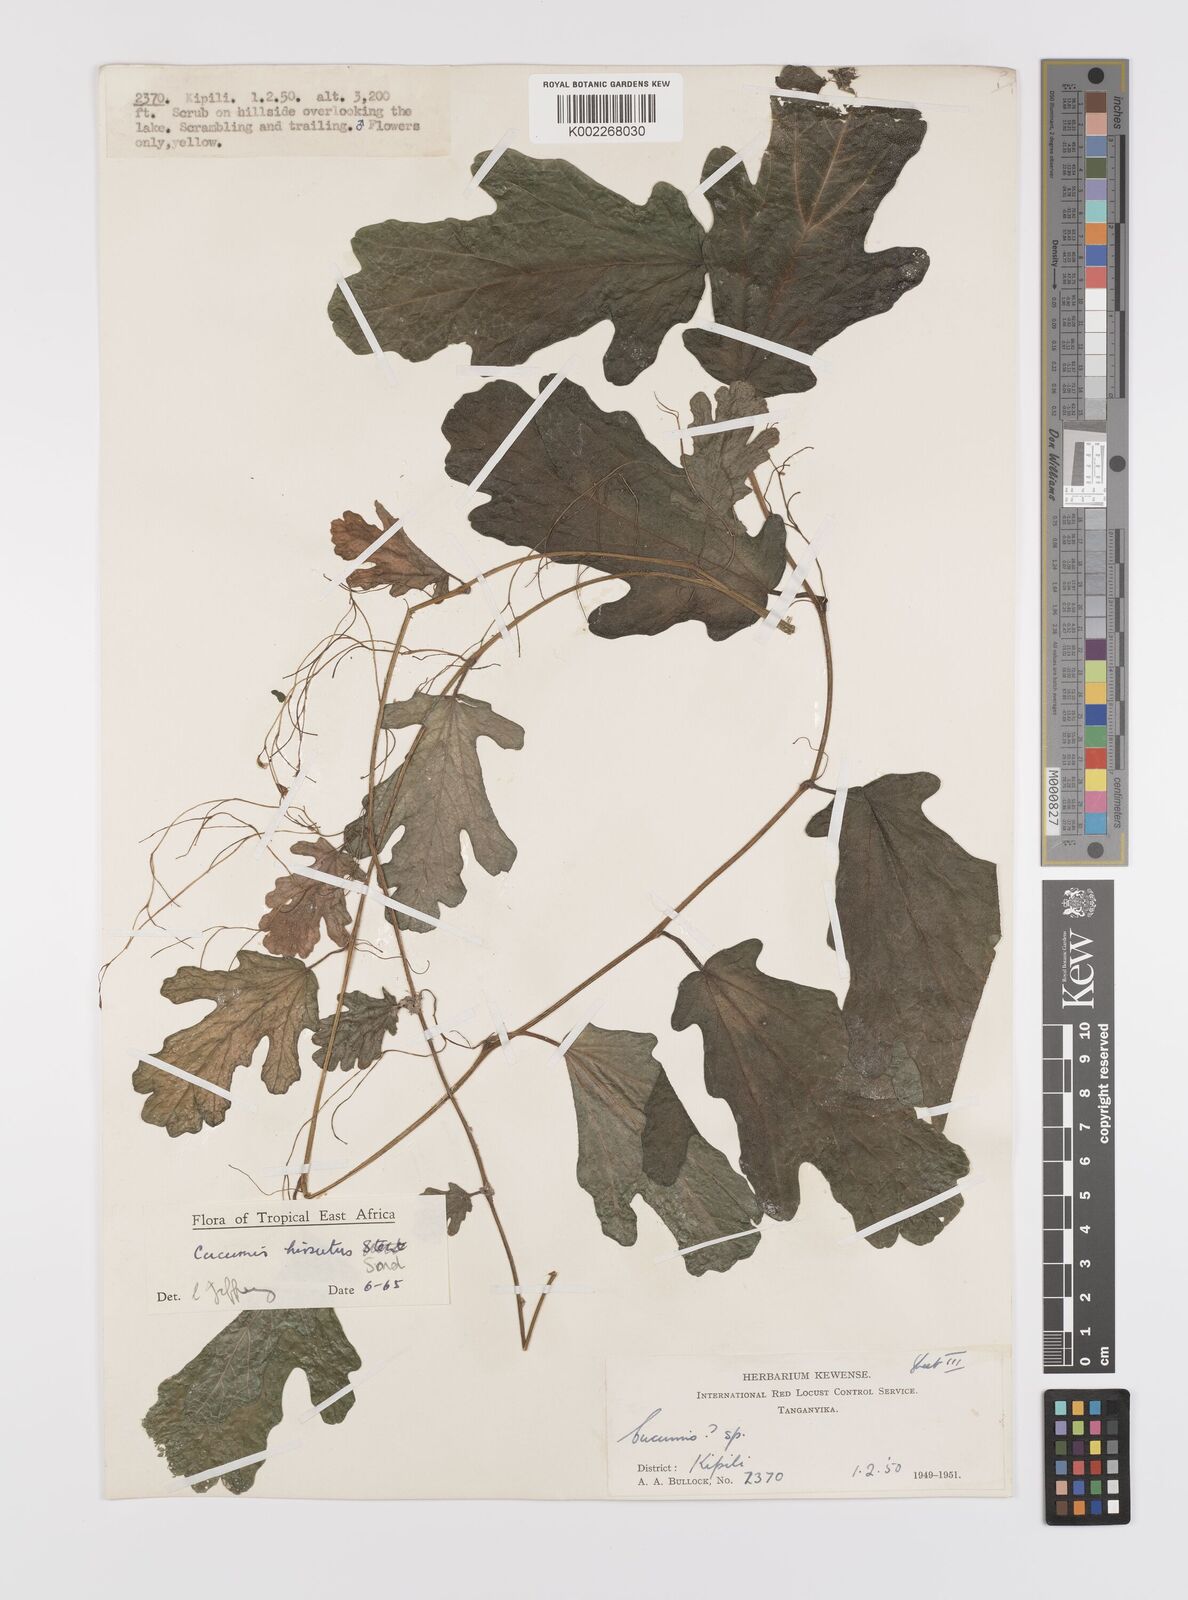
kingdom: Plantae
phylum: Tracheophyta
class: Magnoliopsida
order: Cucurbitales
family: Cucurbitaceae
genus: Cucumis
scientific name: Cucumis hirsutus
